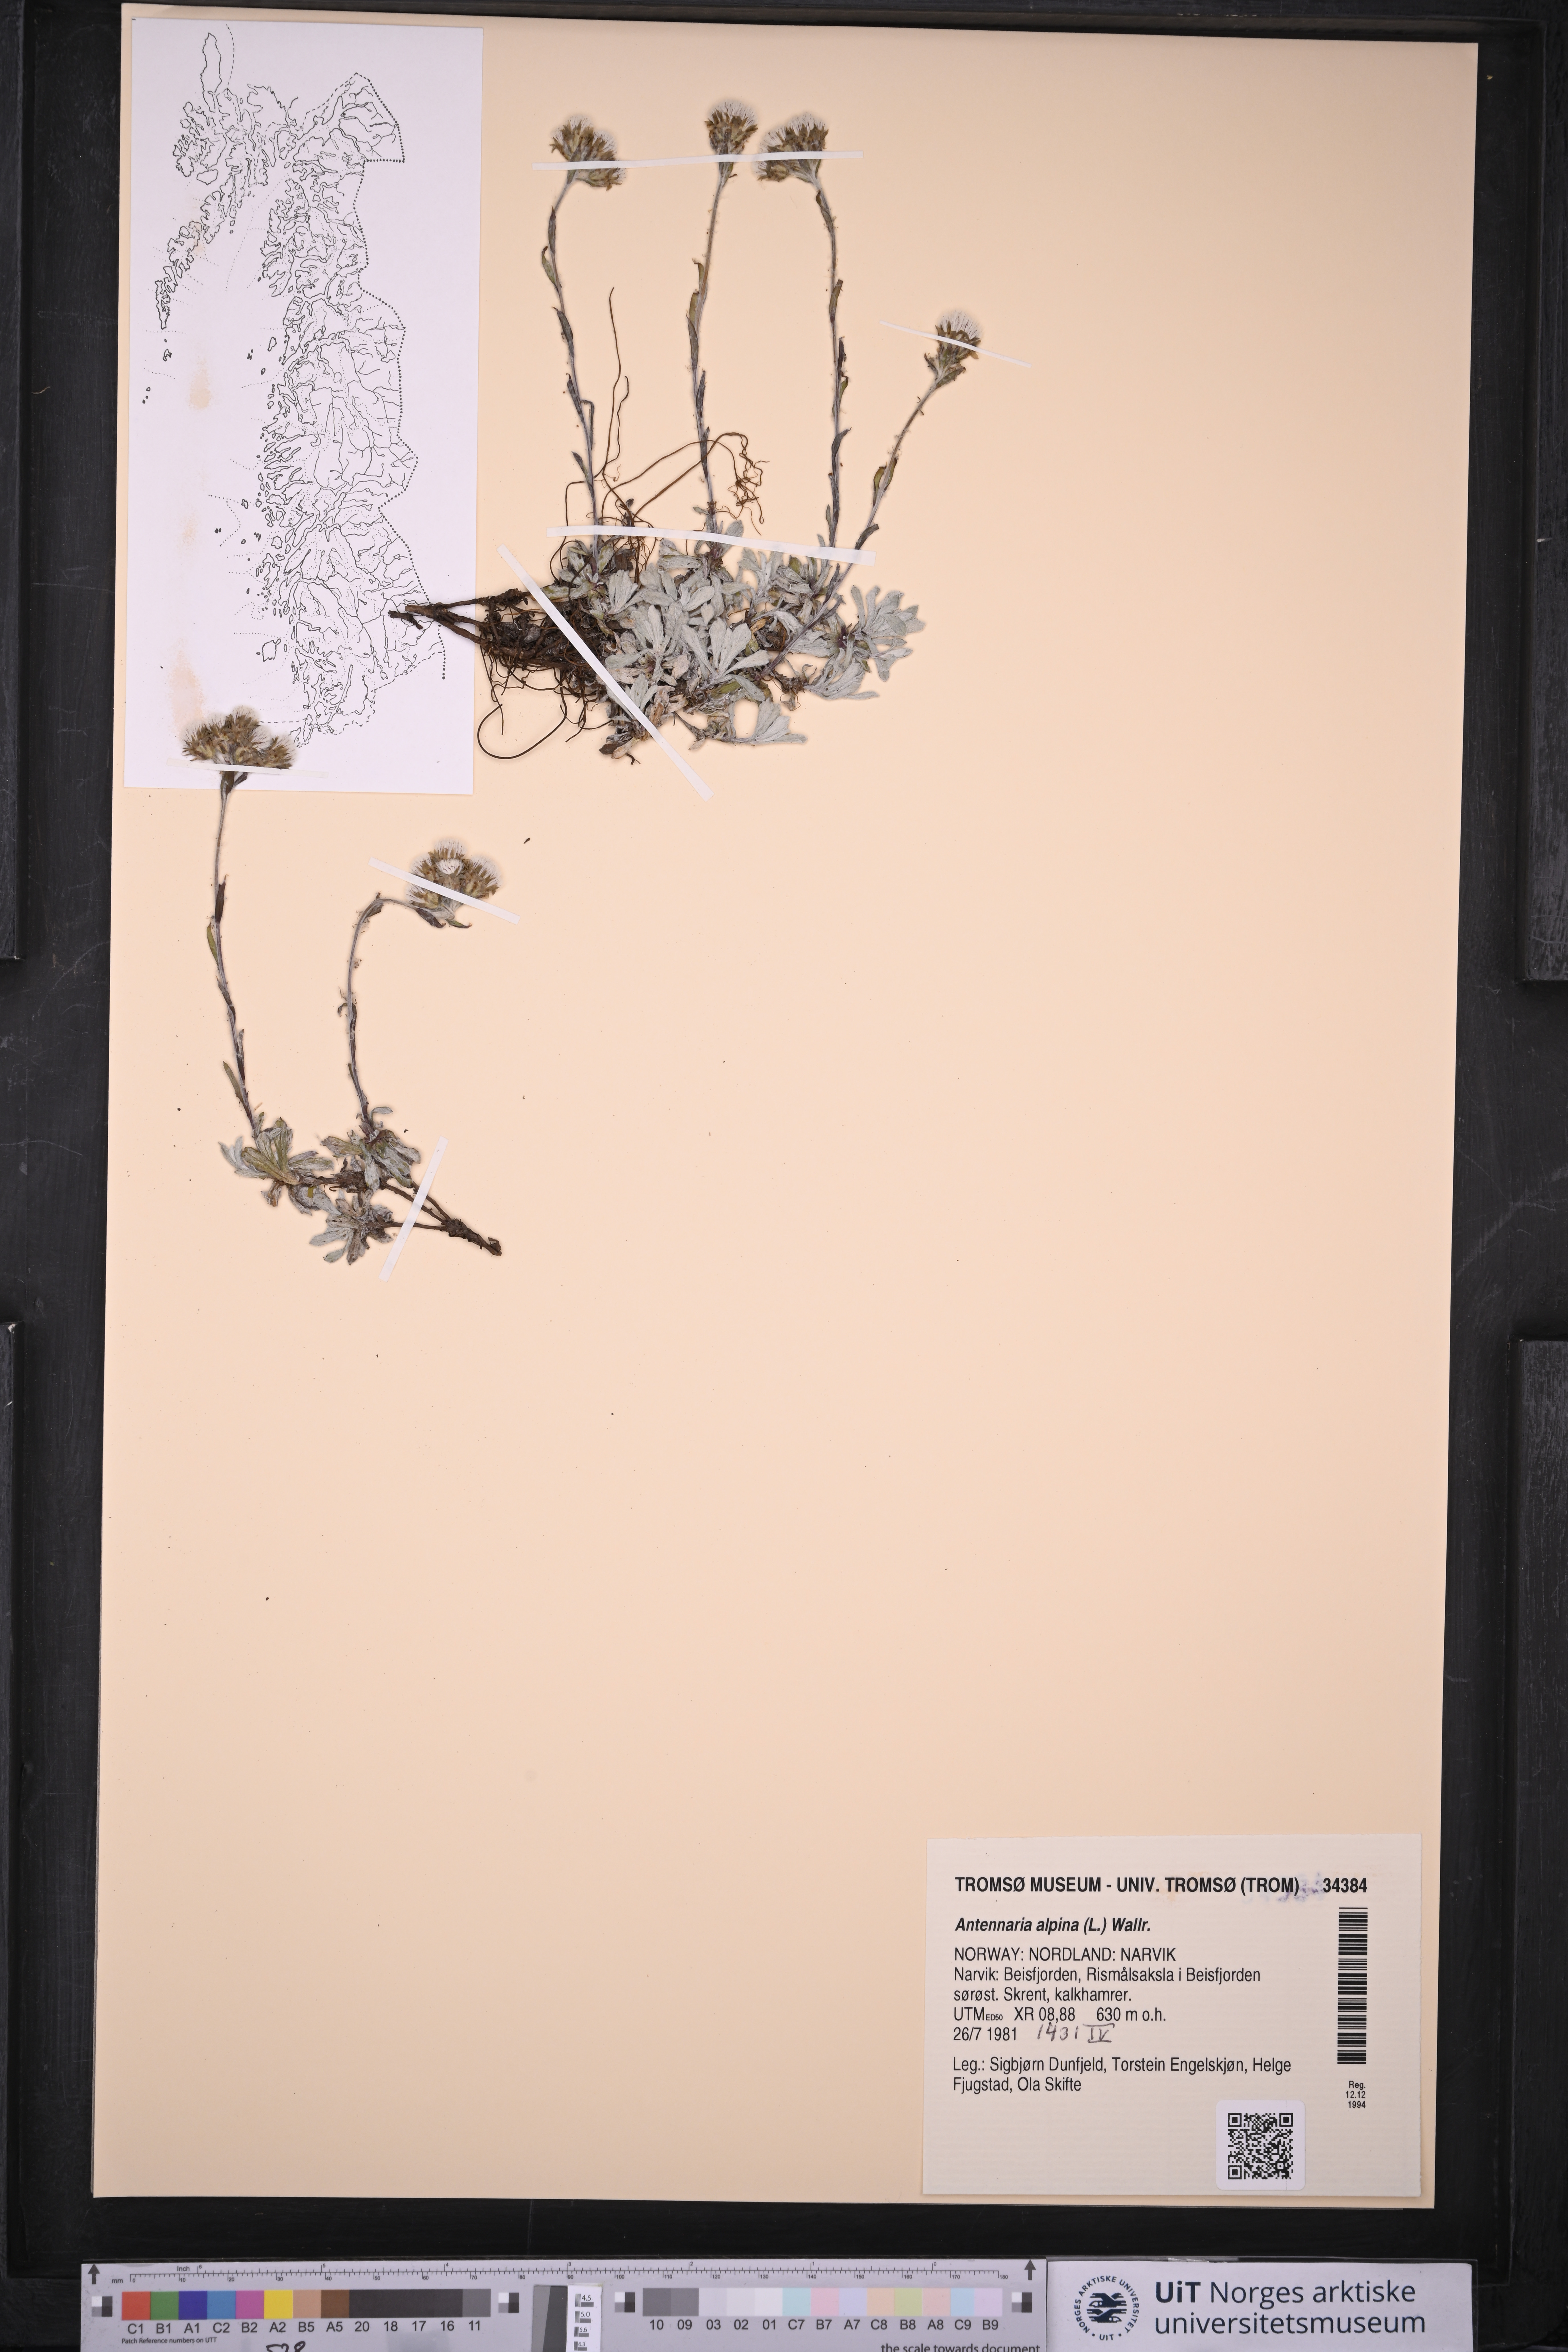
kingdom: Plantae
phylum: Tracheophyta
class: Magnoliopsida
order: Asterales
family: Asteraceae
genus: Antennaria
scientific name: Antennaria alpina
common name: Alpine pussytoes
